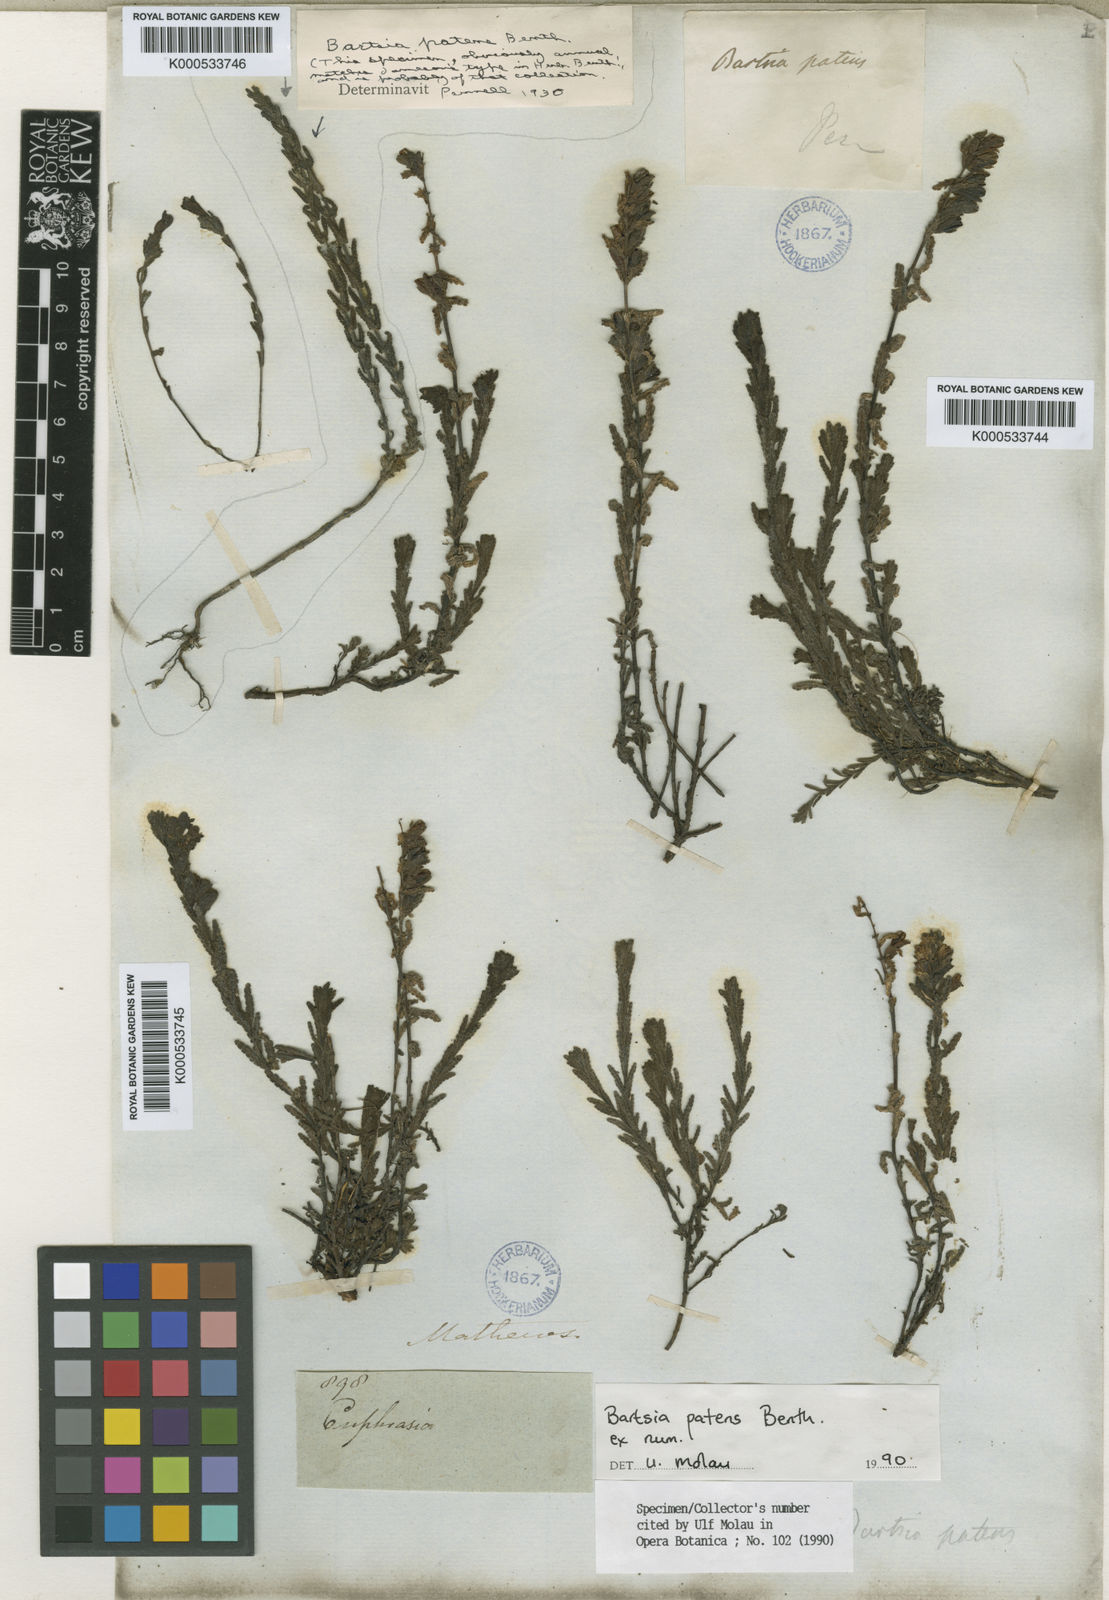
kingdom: Plantae
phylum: Tracheophyta
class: Magnoliopsida
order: Lamiales
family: Orobanchaceae
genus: Neobartsia
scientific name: Neobartsia patens
